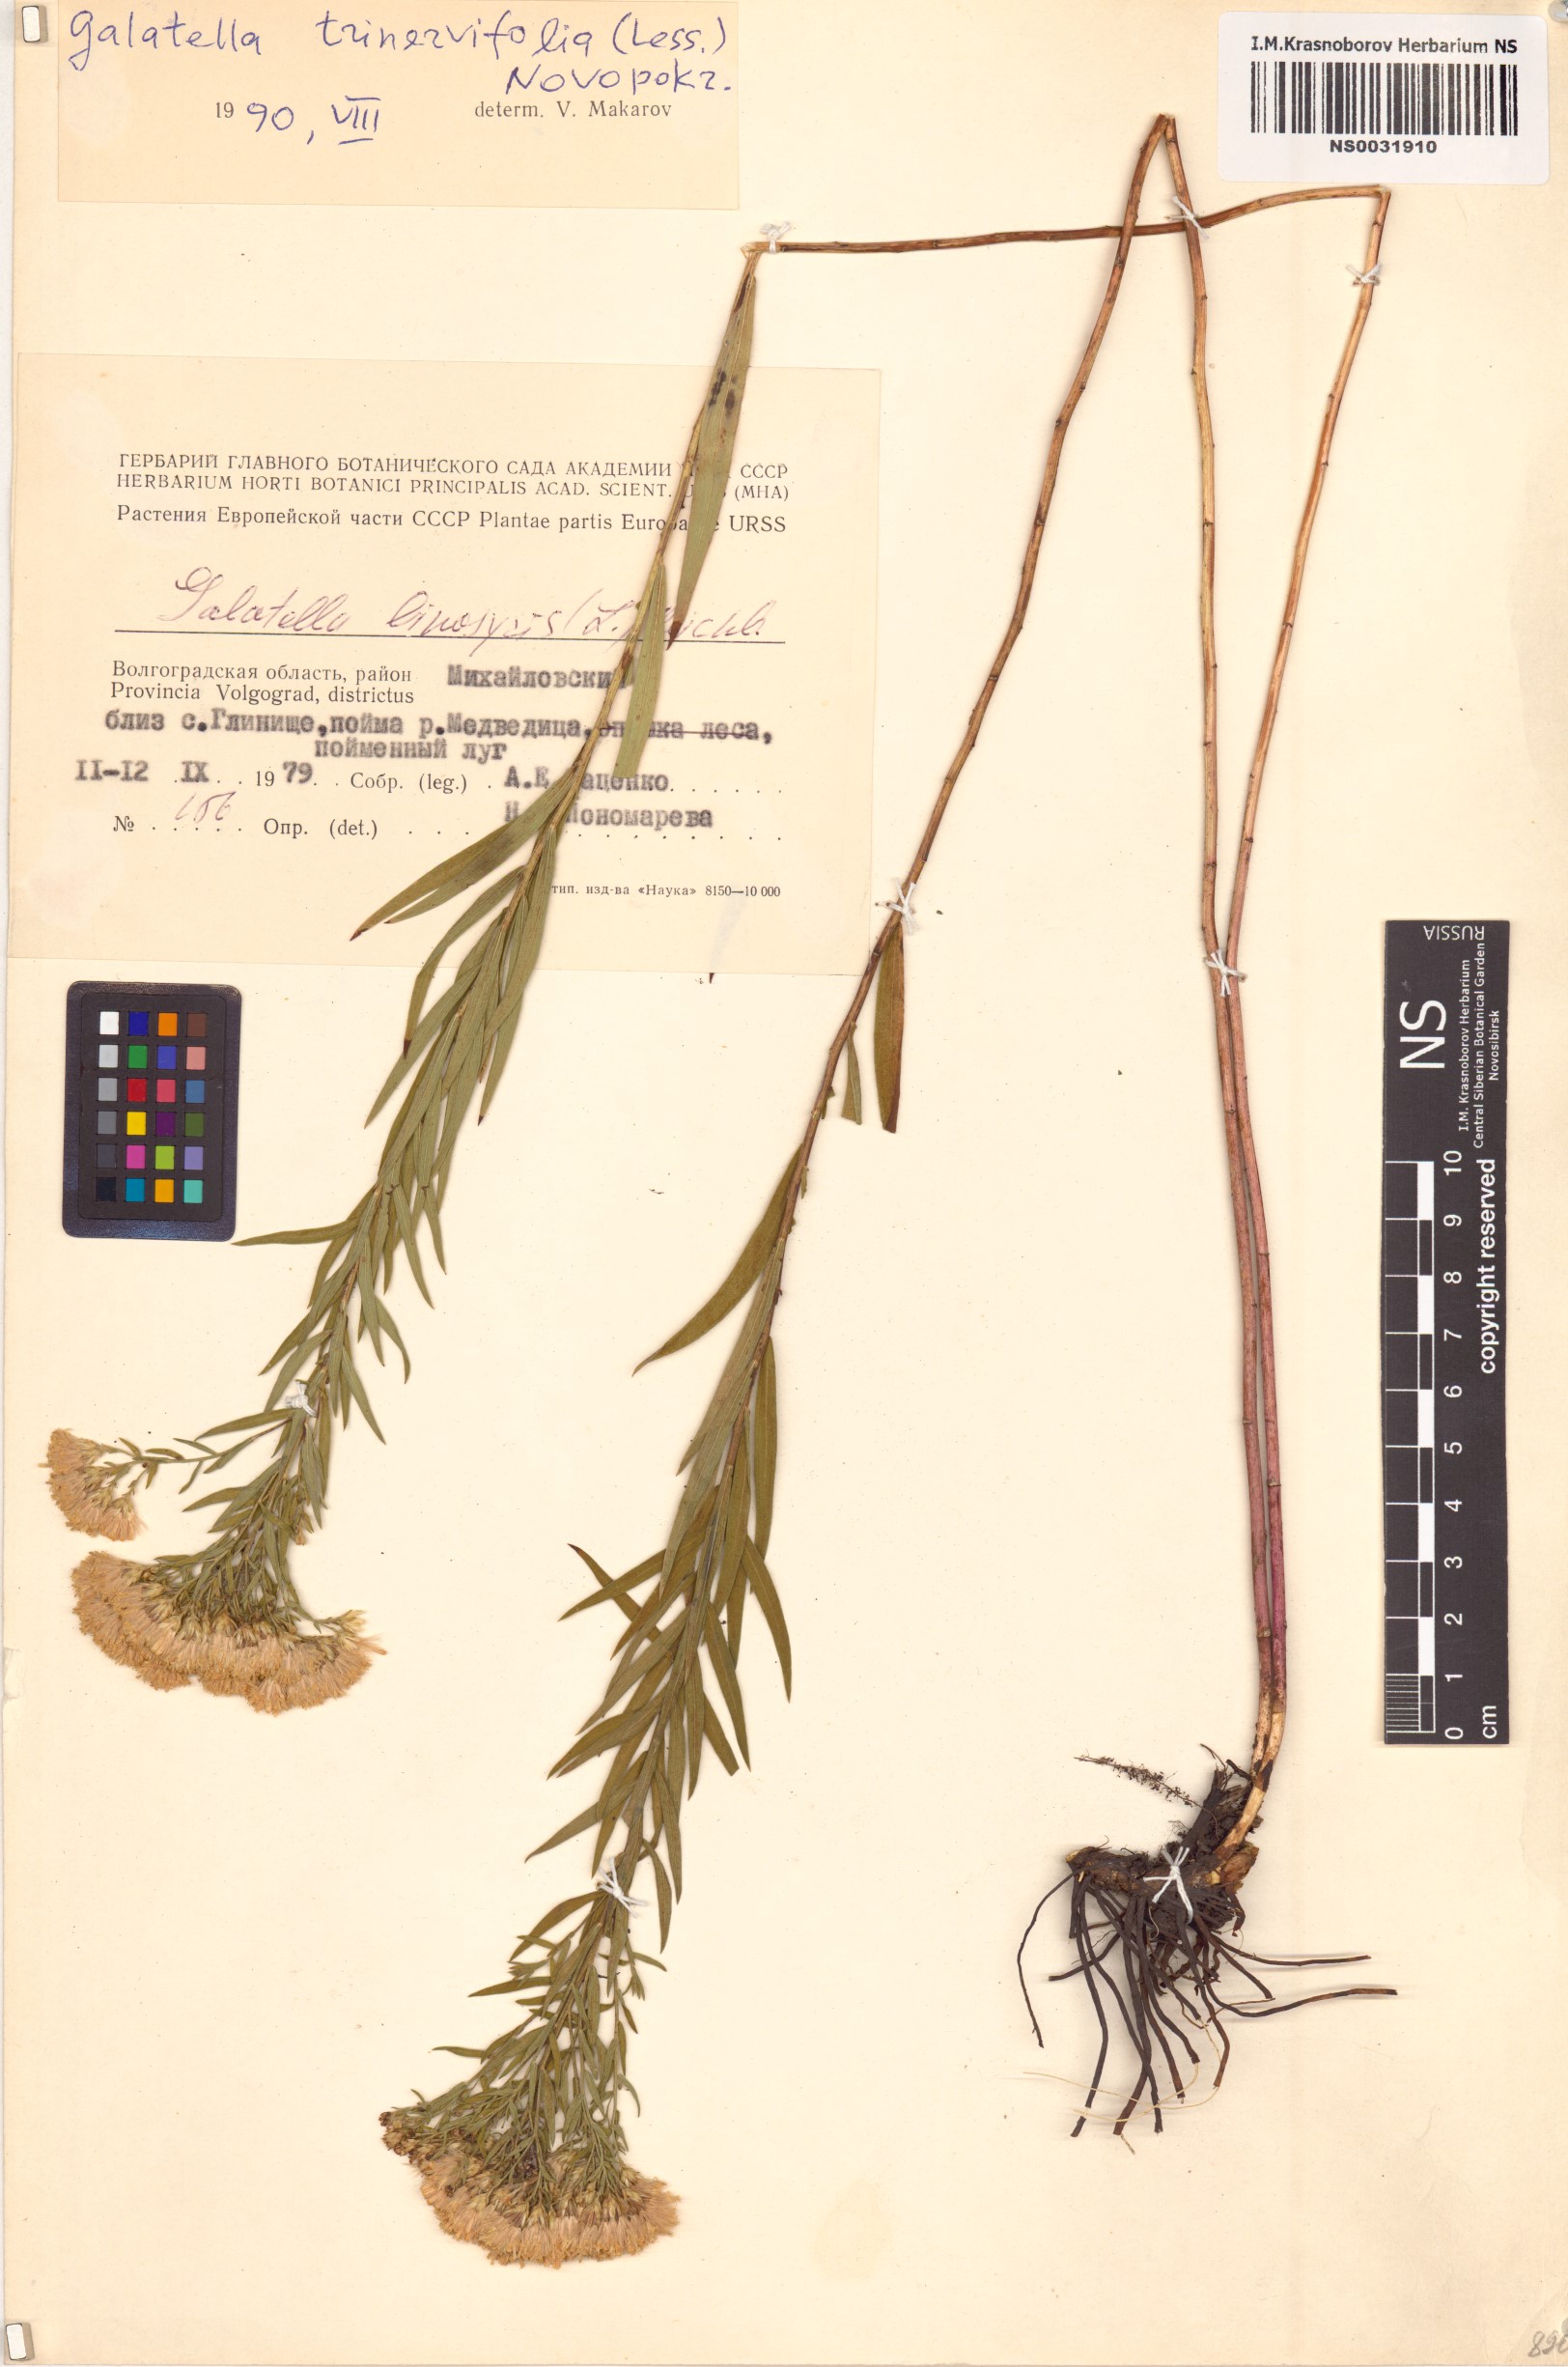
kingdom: Plantae
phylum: Tracheophyta
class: Magnoliopsida
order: Asterales
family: Asteraceae
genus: Galatella
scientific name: Galatella sedifolia
